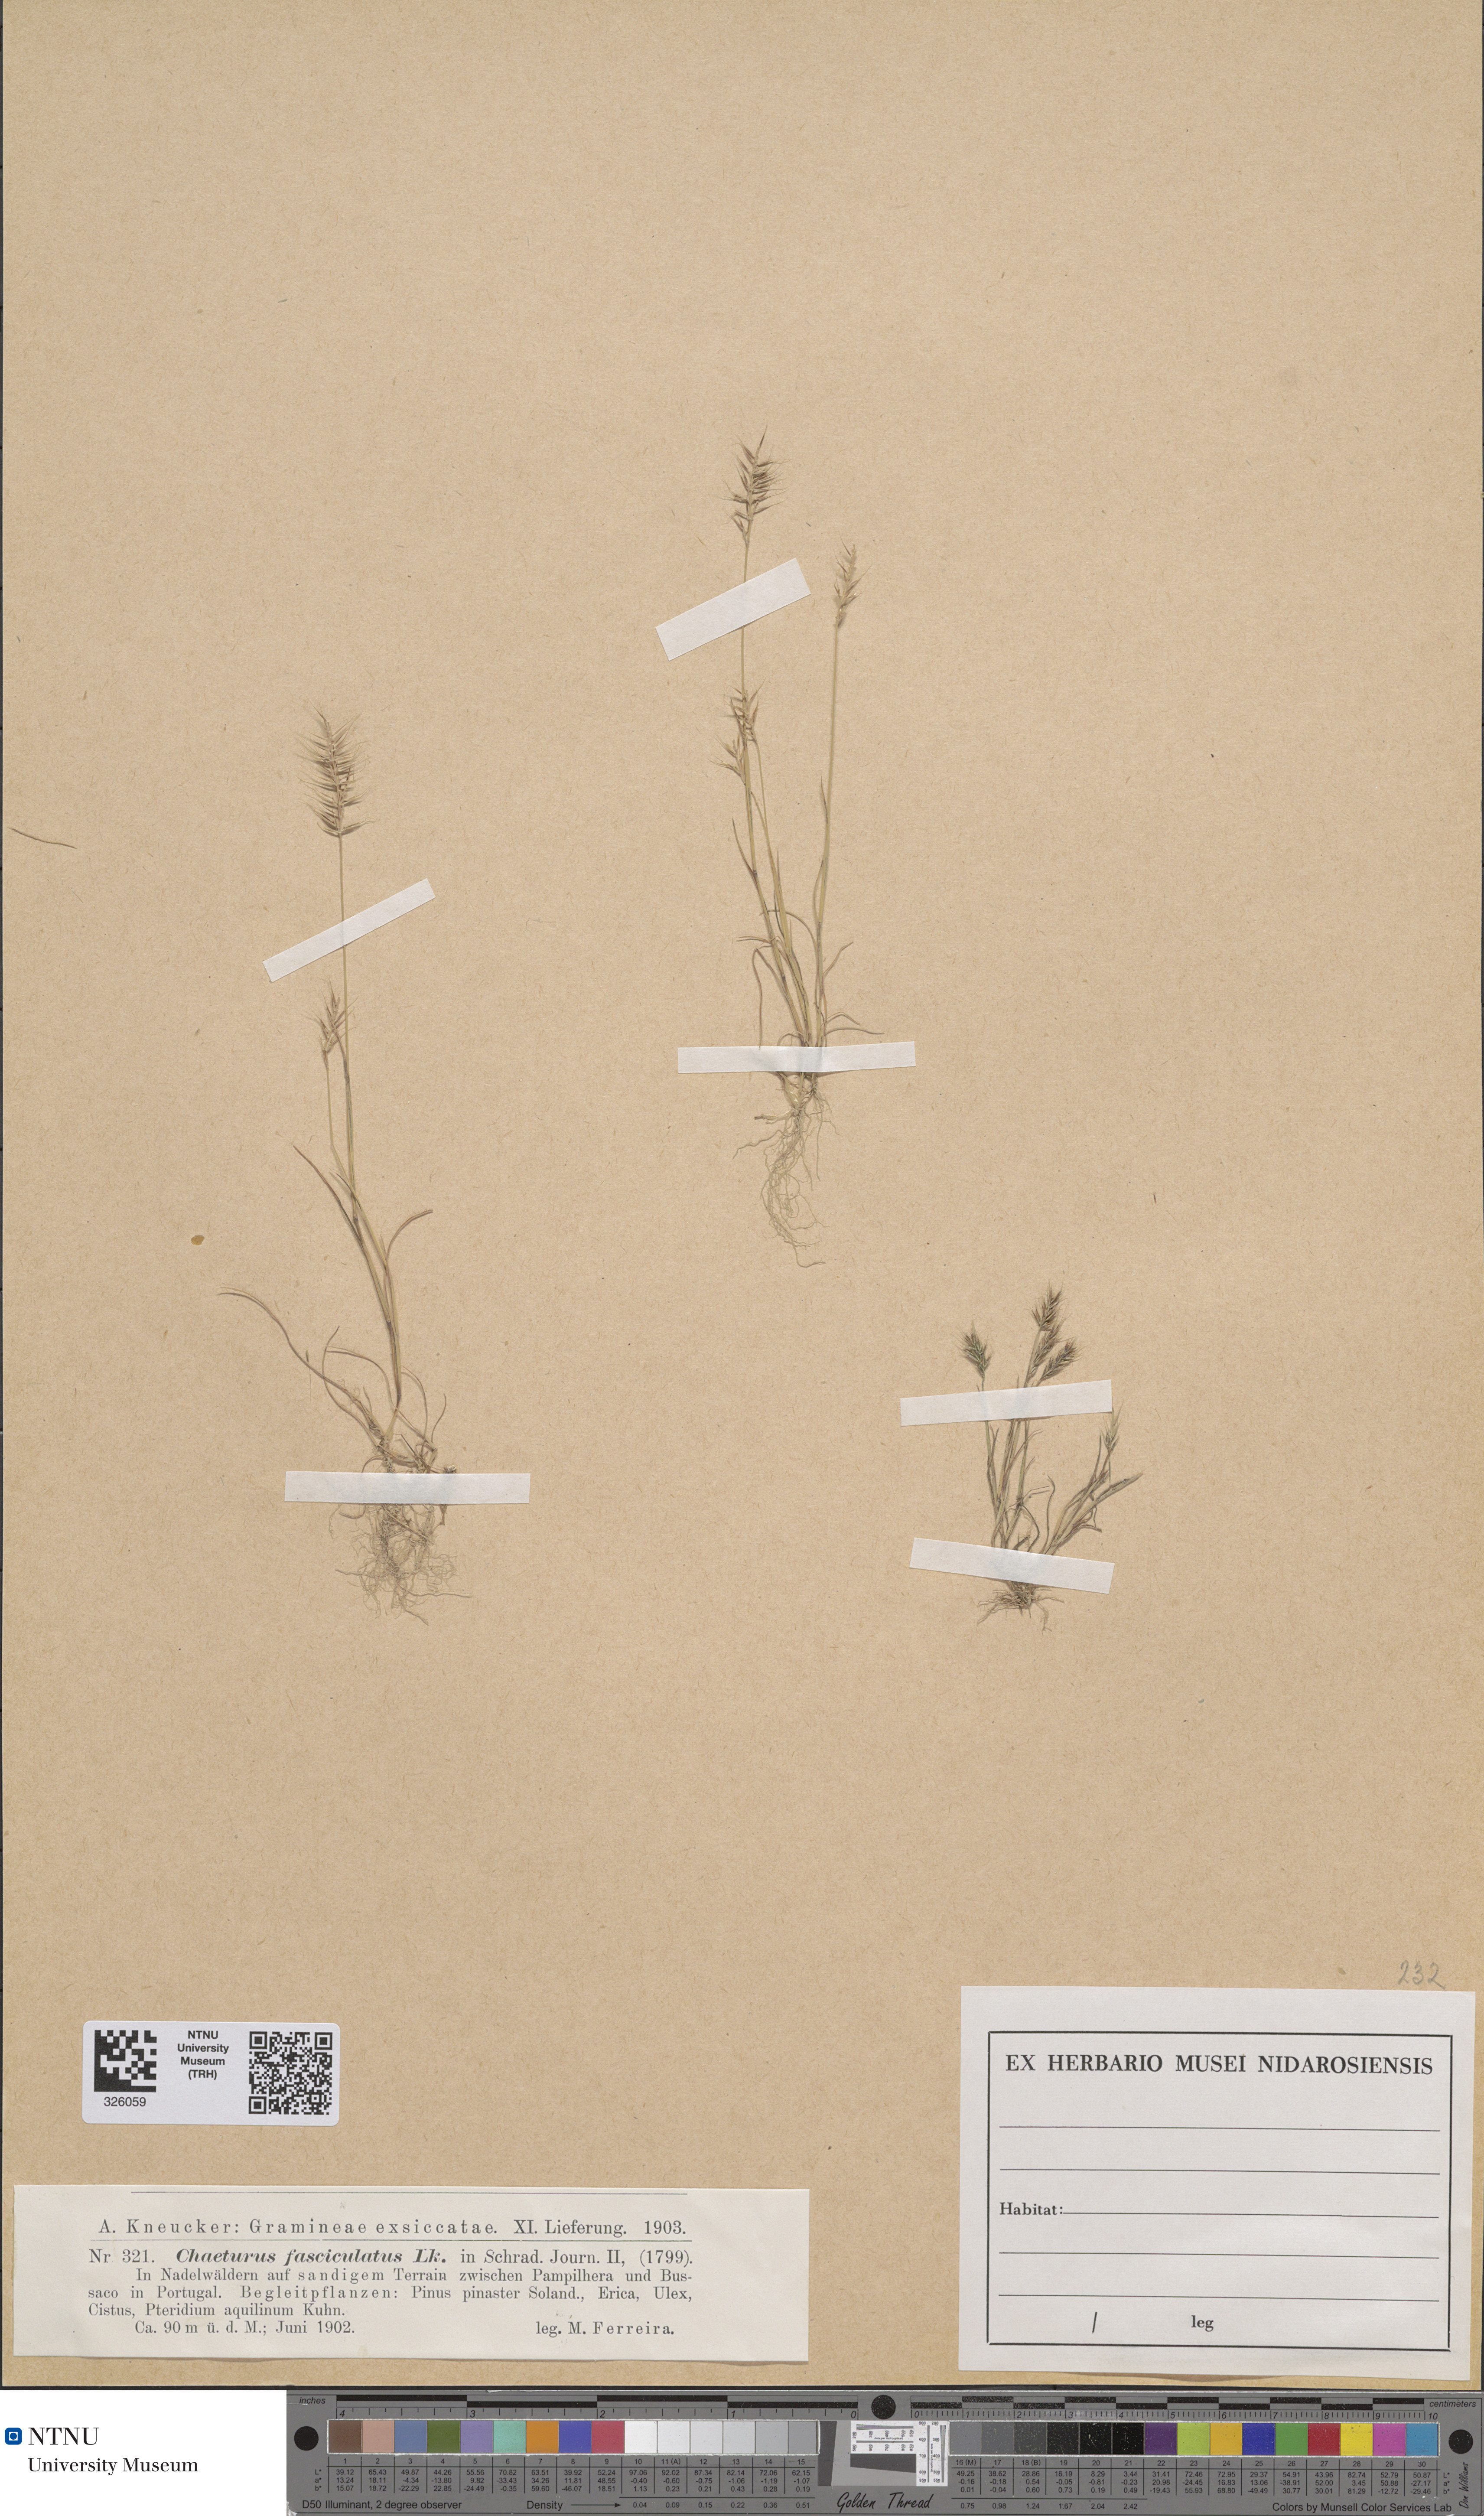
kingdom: Plantae
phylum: Tracheophyta
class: Liliopsida
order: Poales
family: Poaceae
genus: Agrostis
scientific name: Agrostis subspicata
